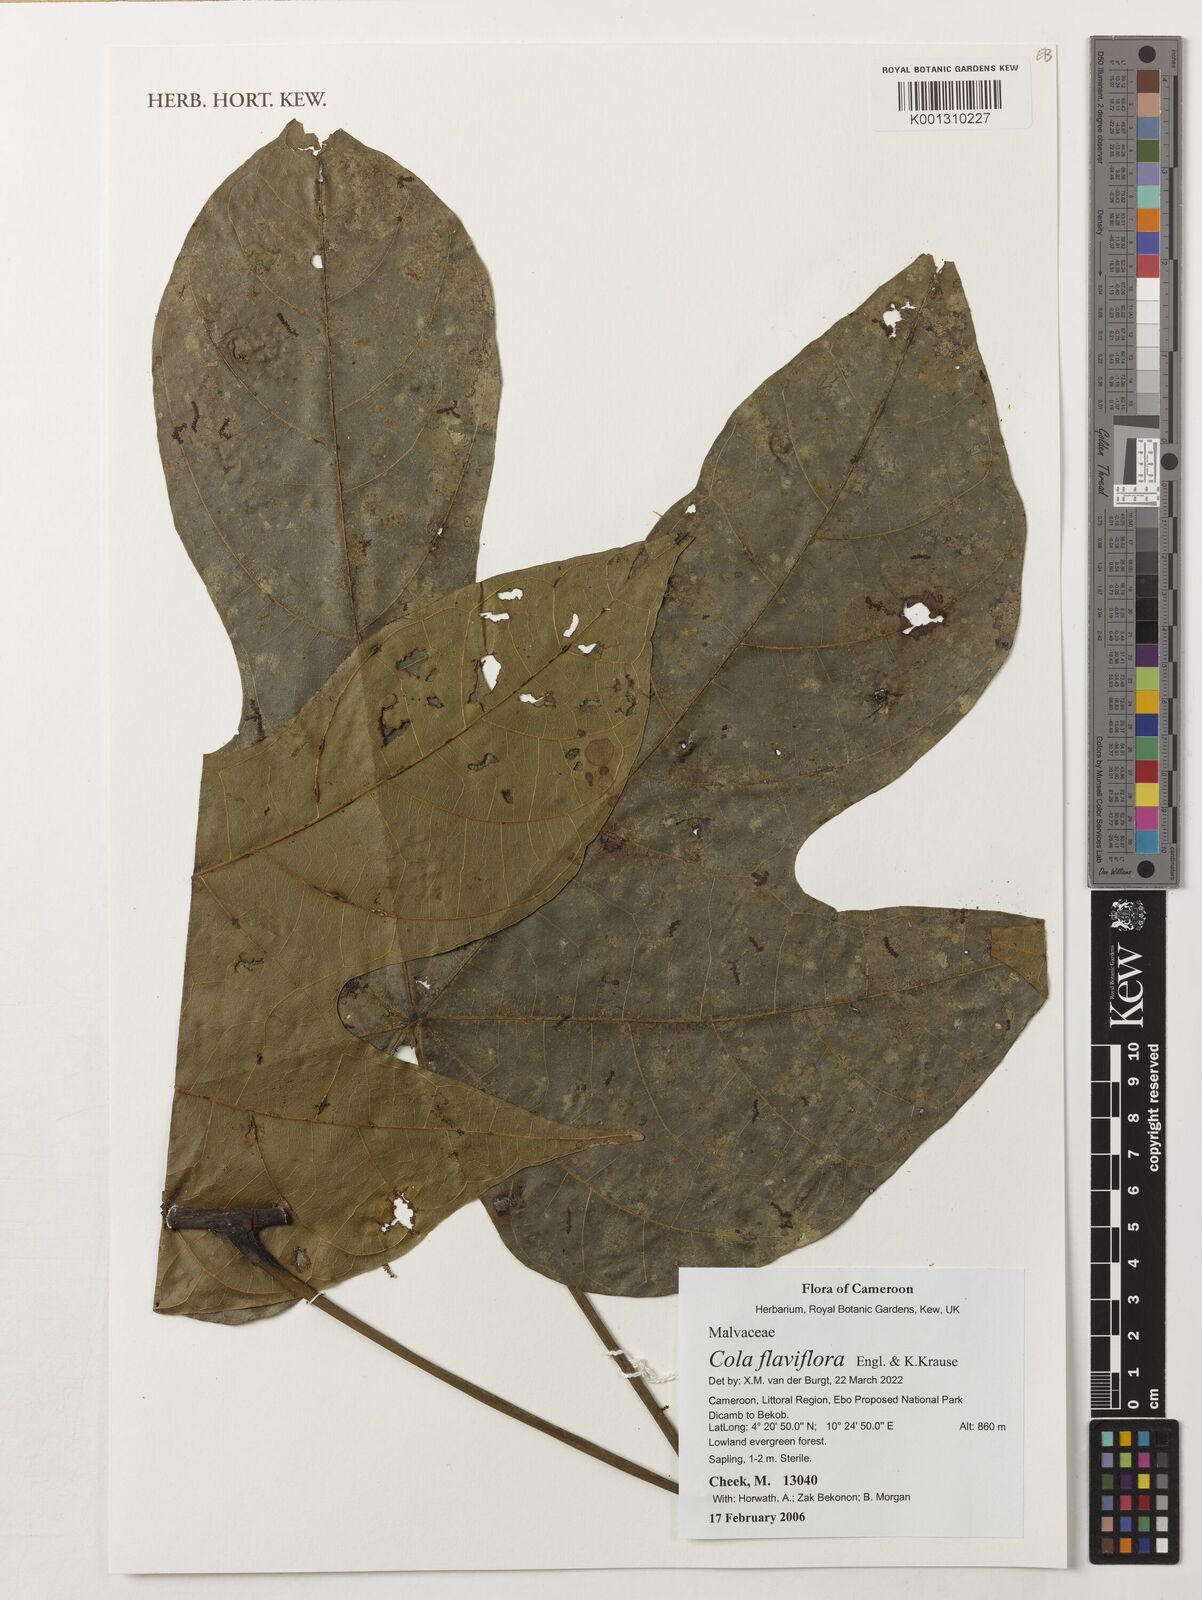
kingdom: Plantae
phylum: Tracheophyta
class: Magnoliopsida
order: Malvales
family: Malvaceae
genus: Cola
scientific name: Cola flaviflora
